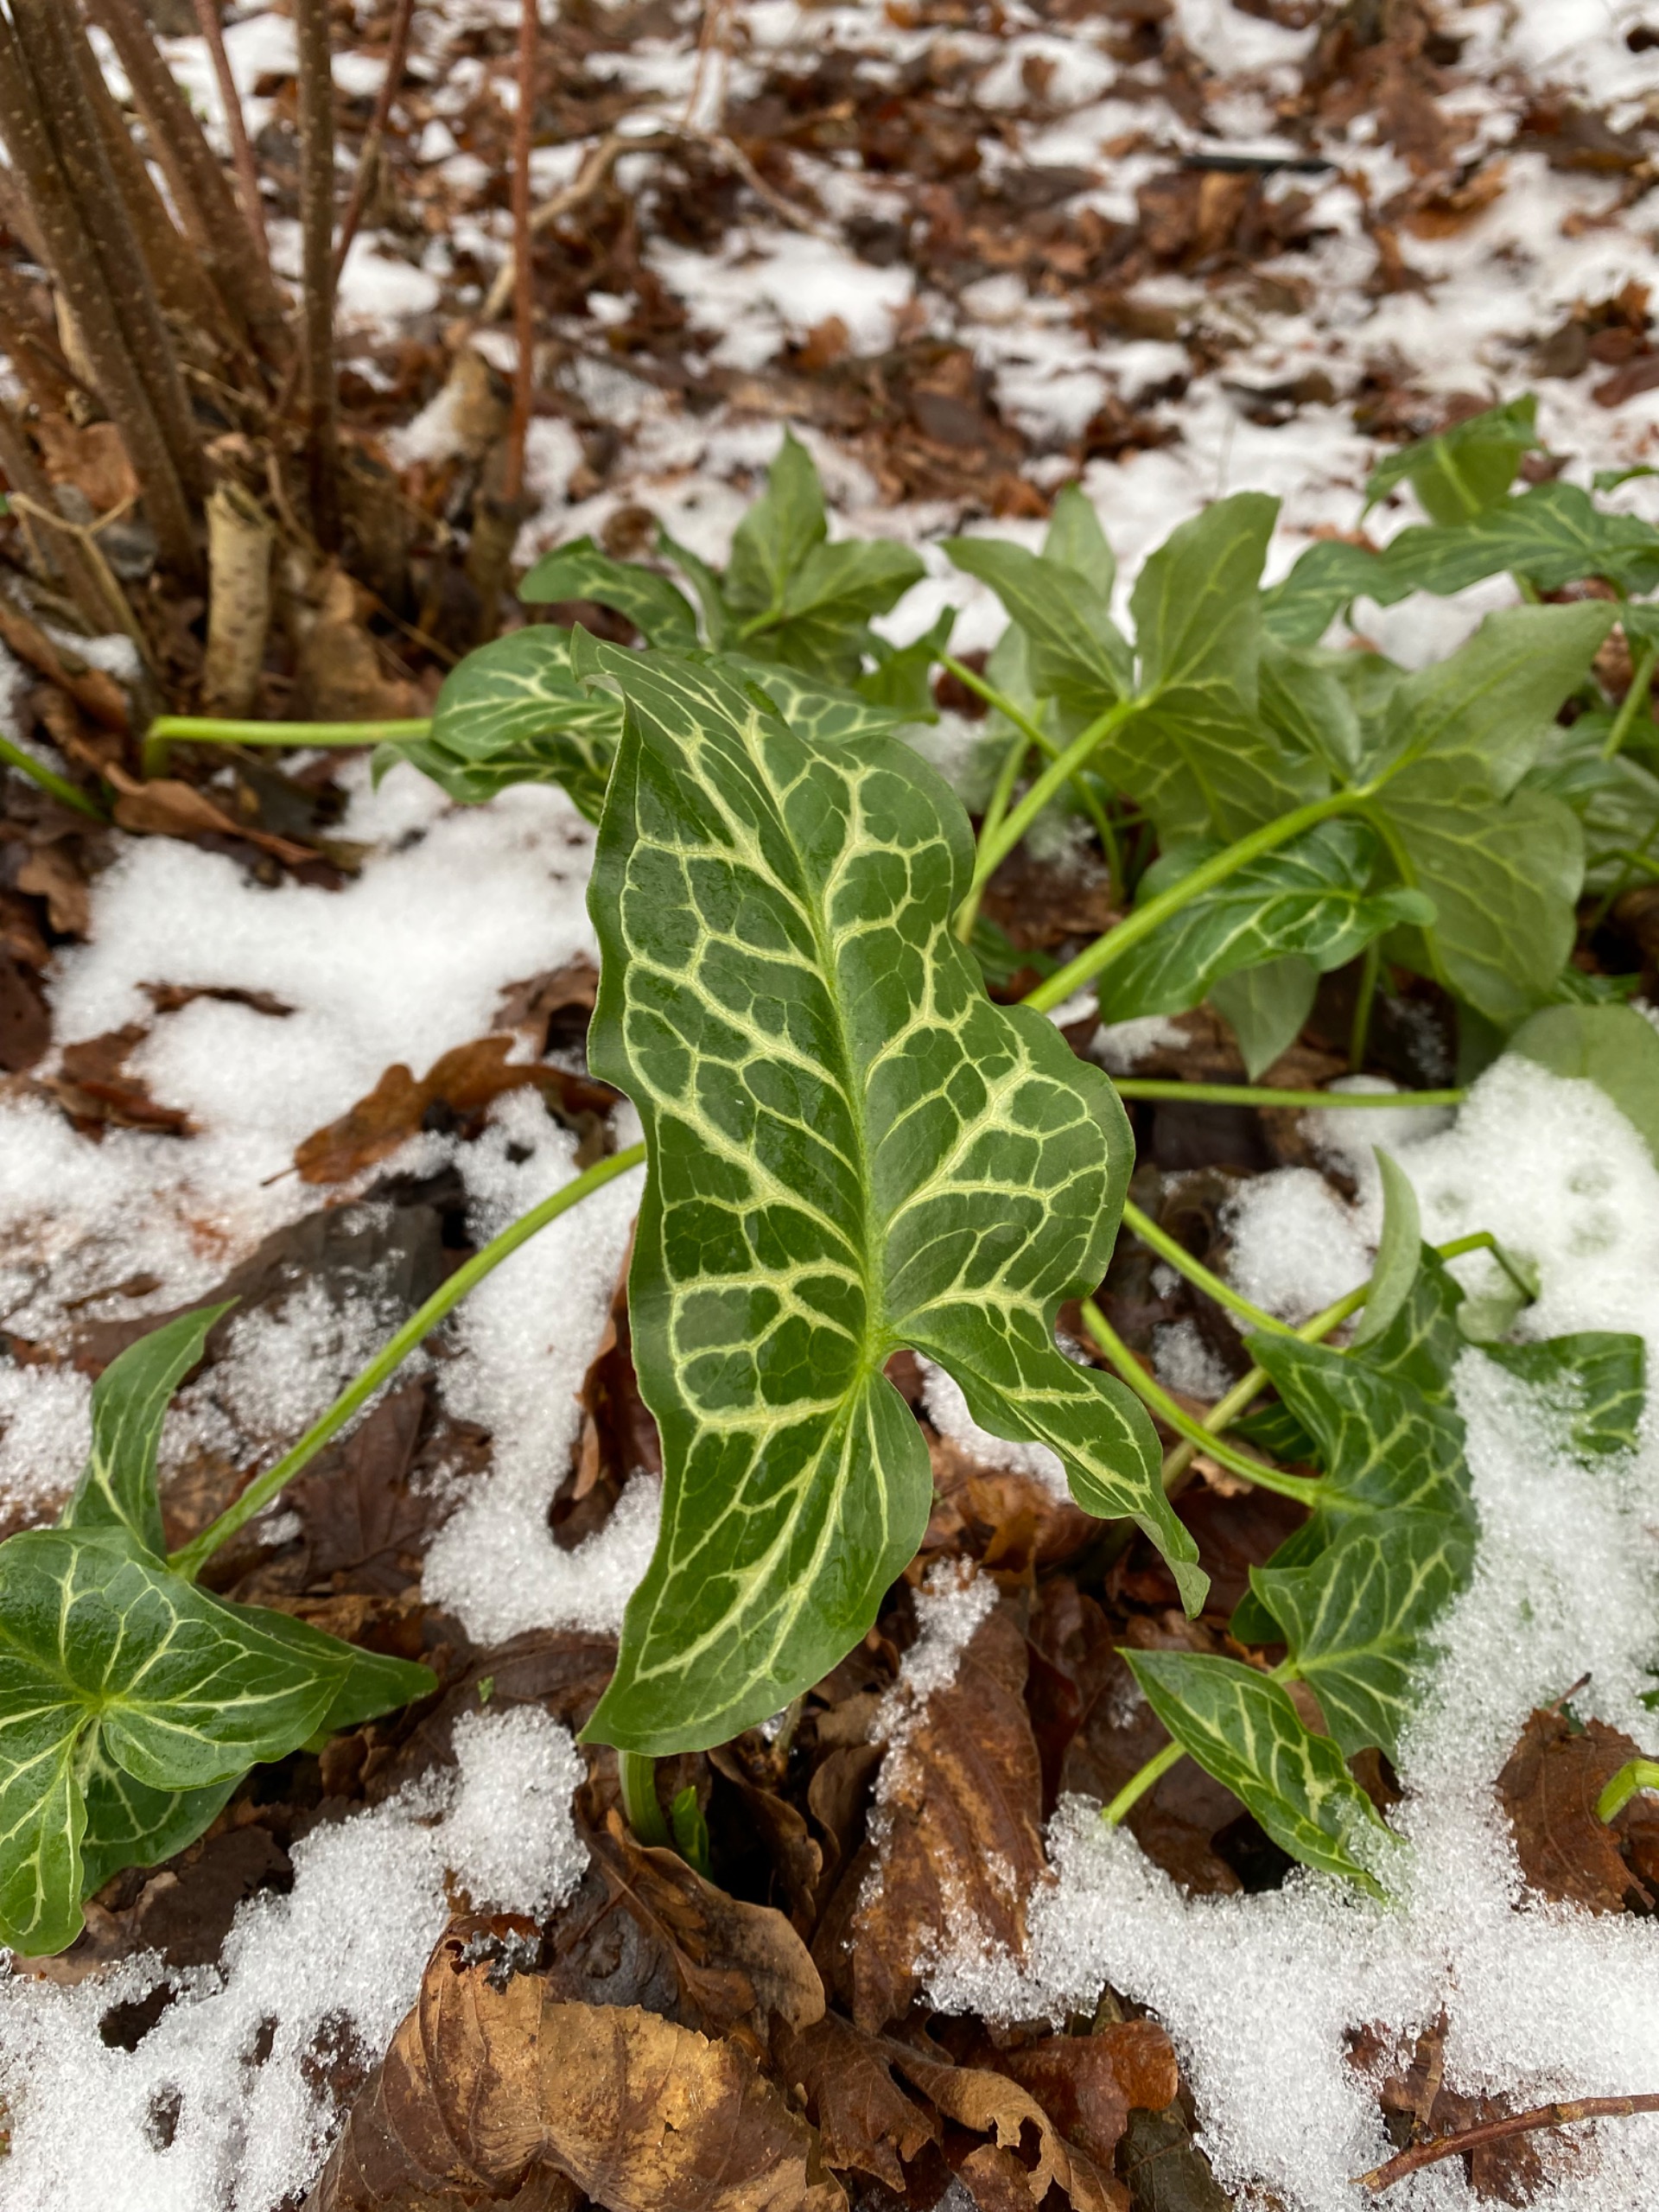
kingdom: Plantae
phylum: Tracheophyta
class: Liliopsida
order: Alismatales
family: Araceae
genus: Arum
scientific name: Arum italicum
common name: Italiensk arum
